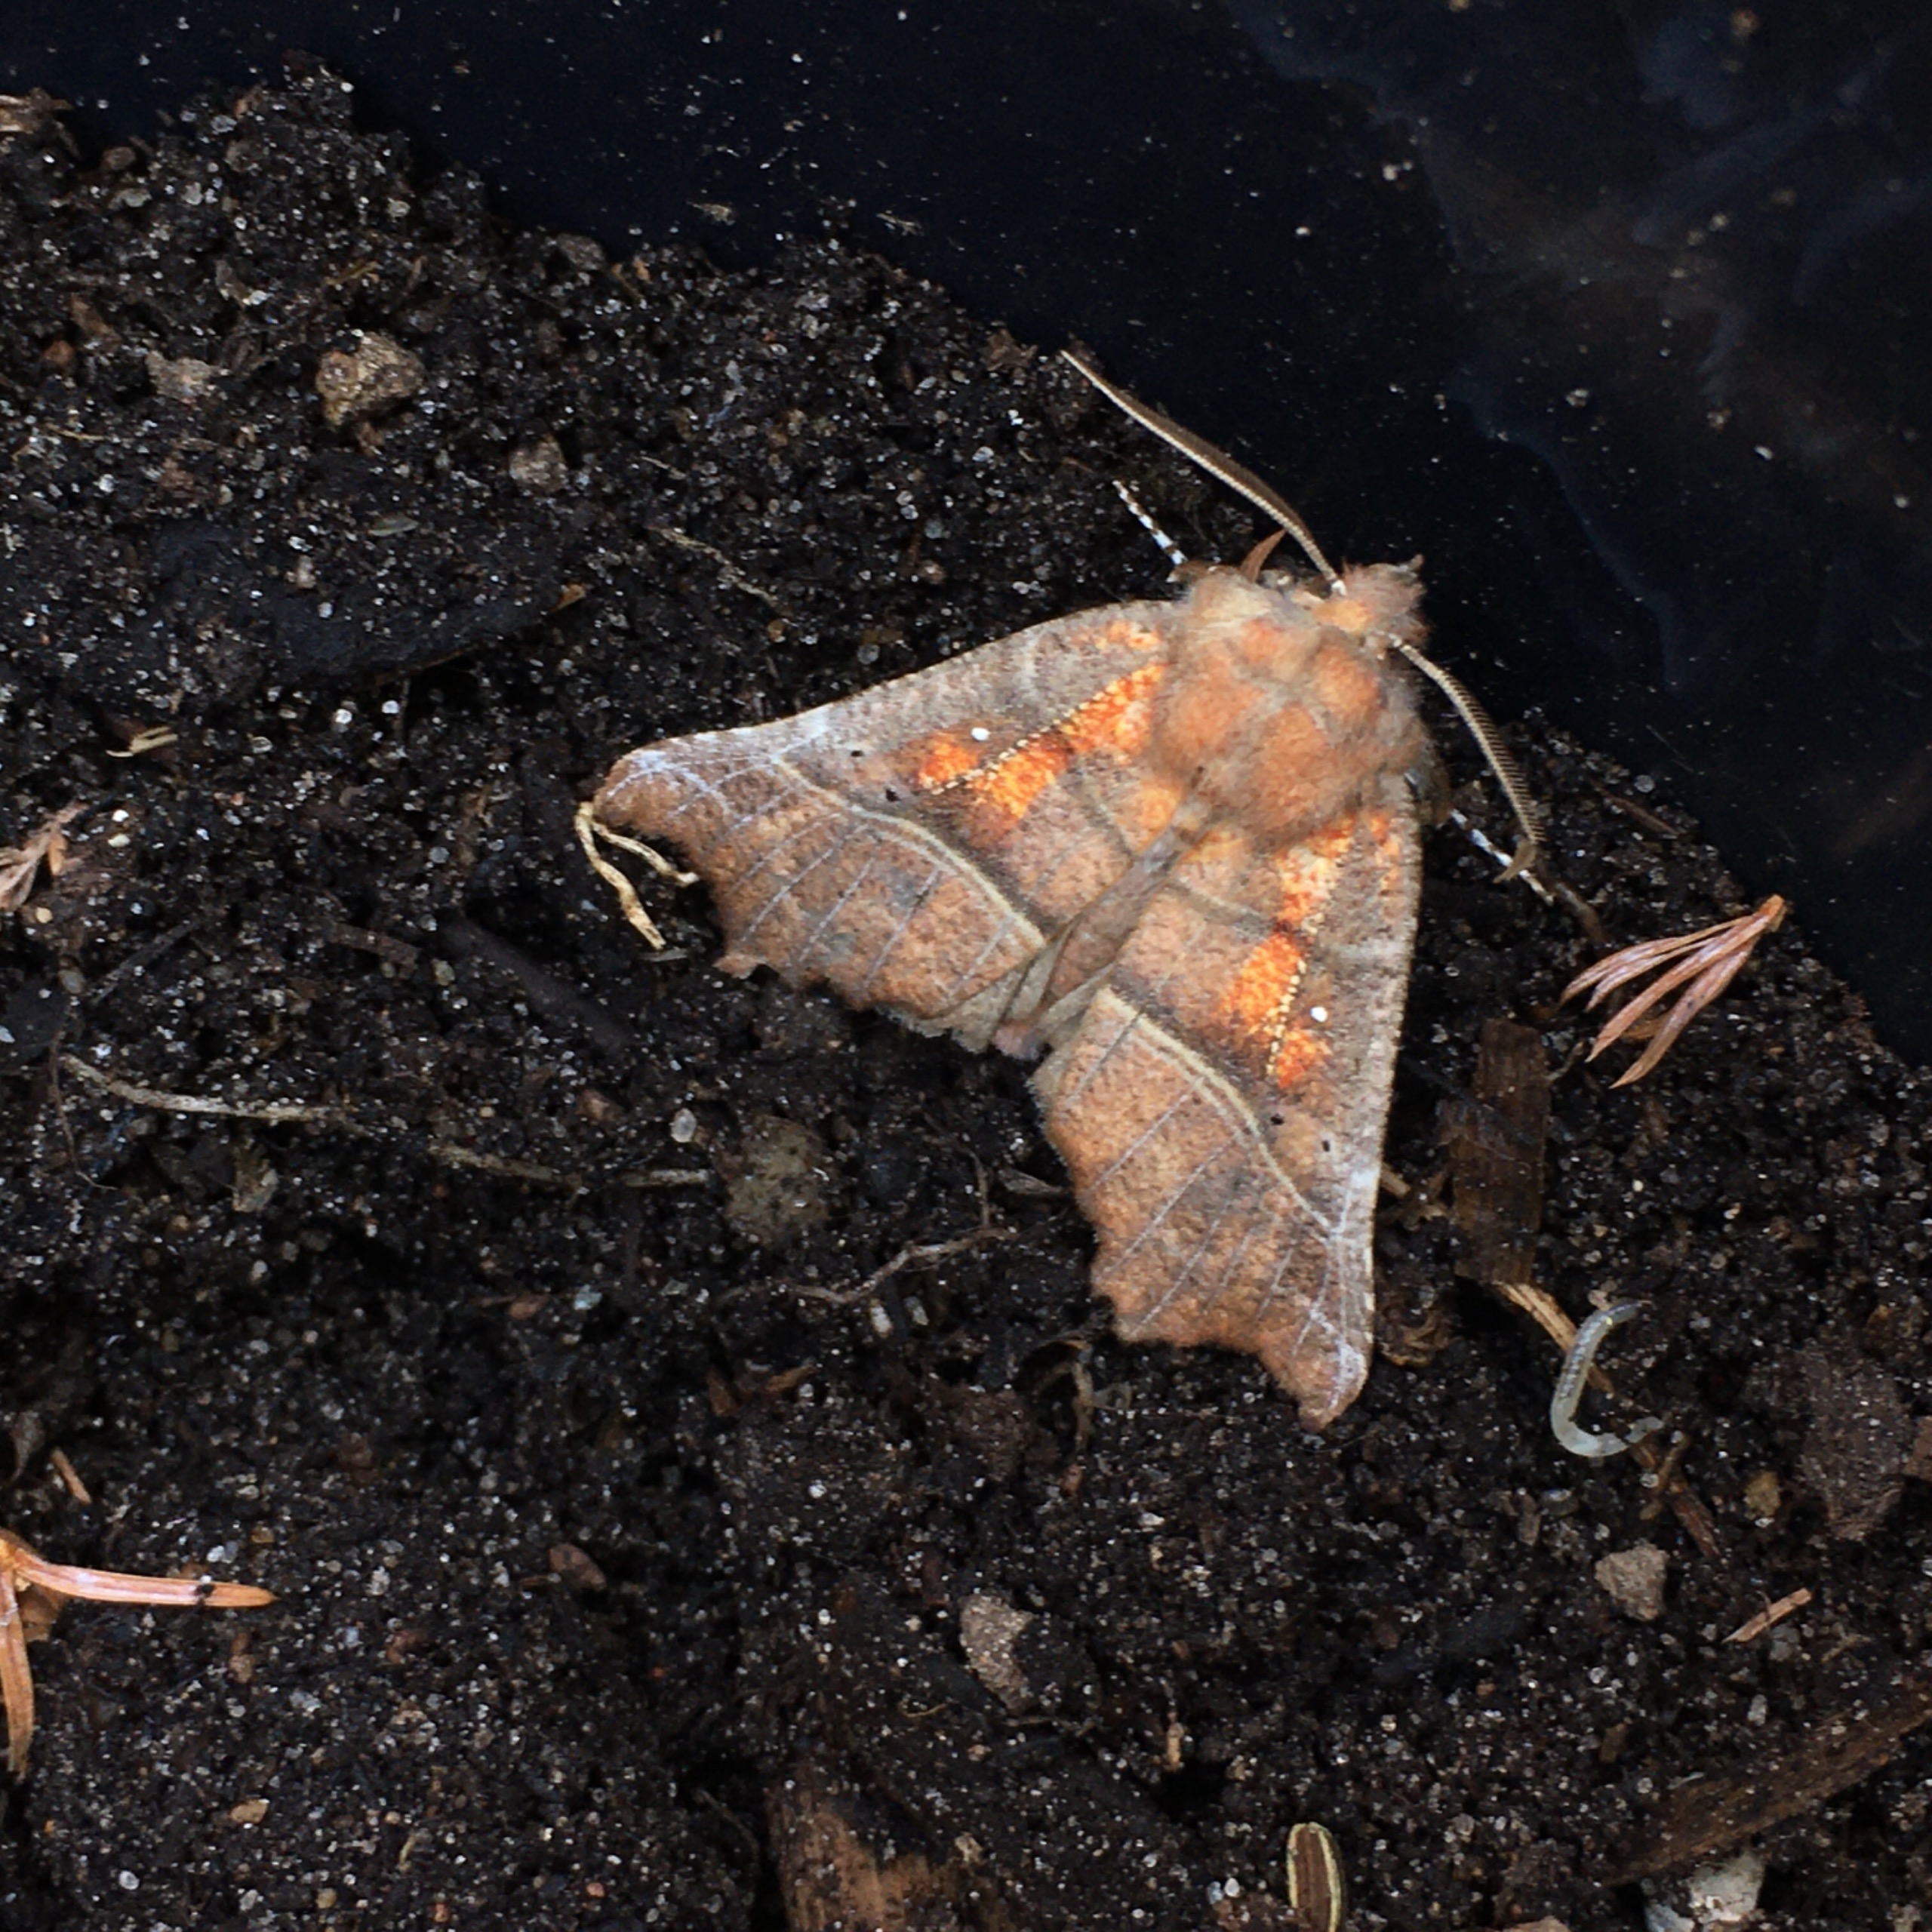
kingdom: Animalia
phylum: Arthropoda
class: Insecta
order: Lepidoptera
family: Erebidae
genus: Scoliopteryx
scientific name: Scoliopteryx libatrix
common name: Husmoderugle
